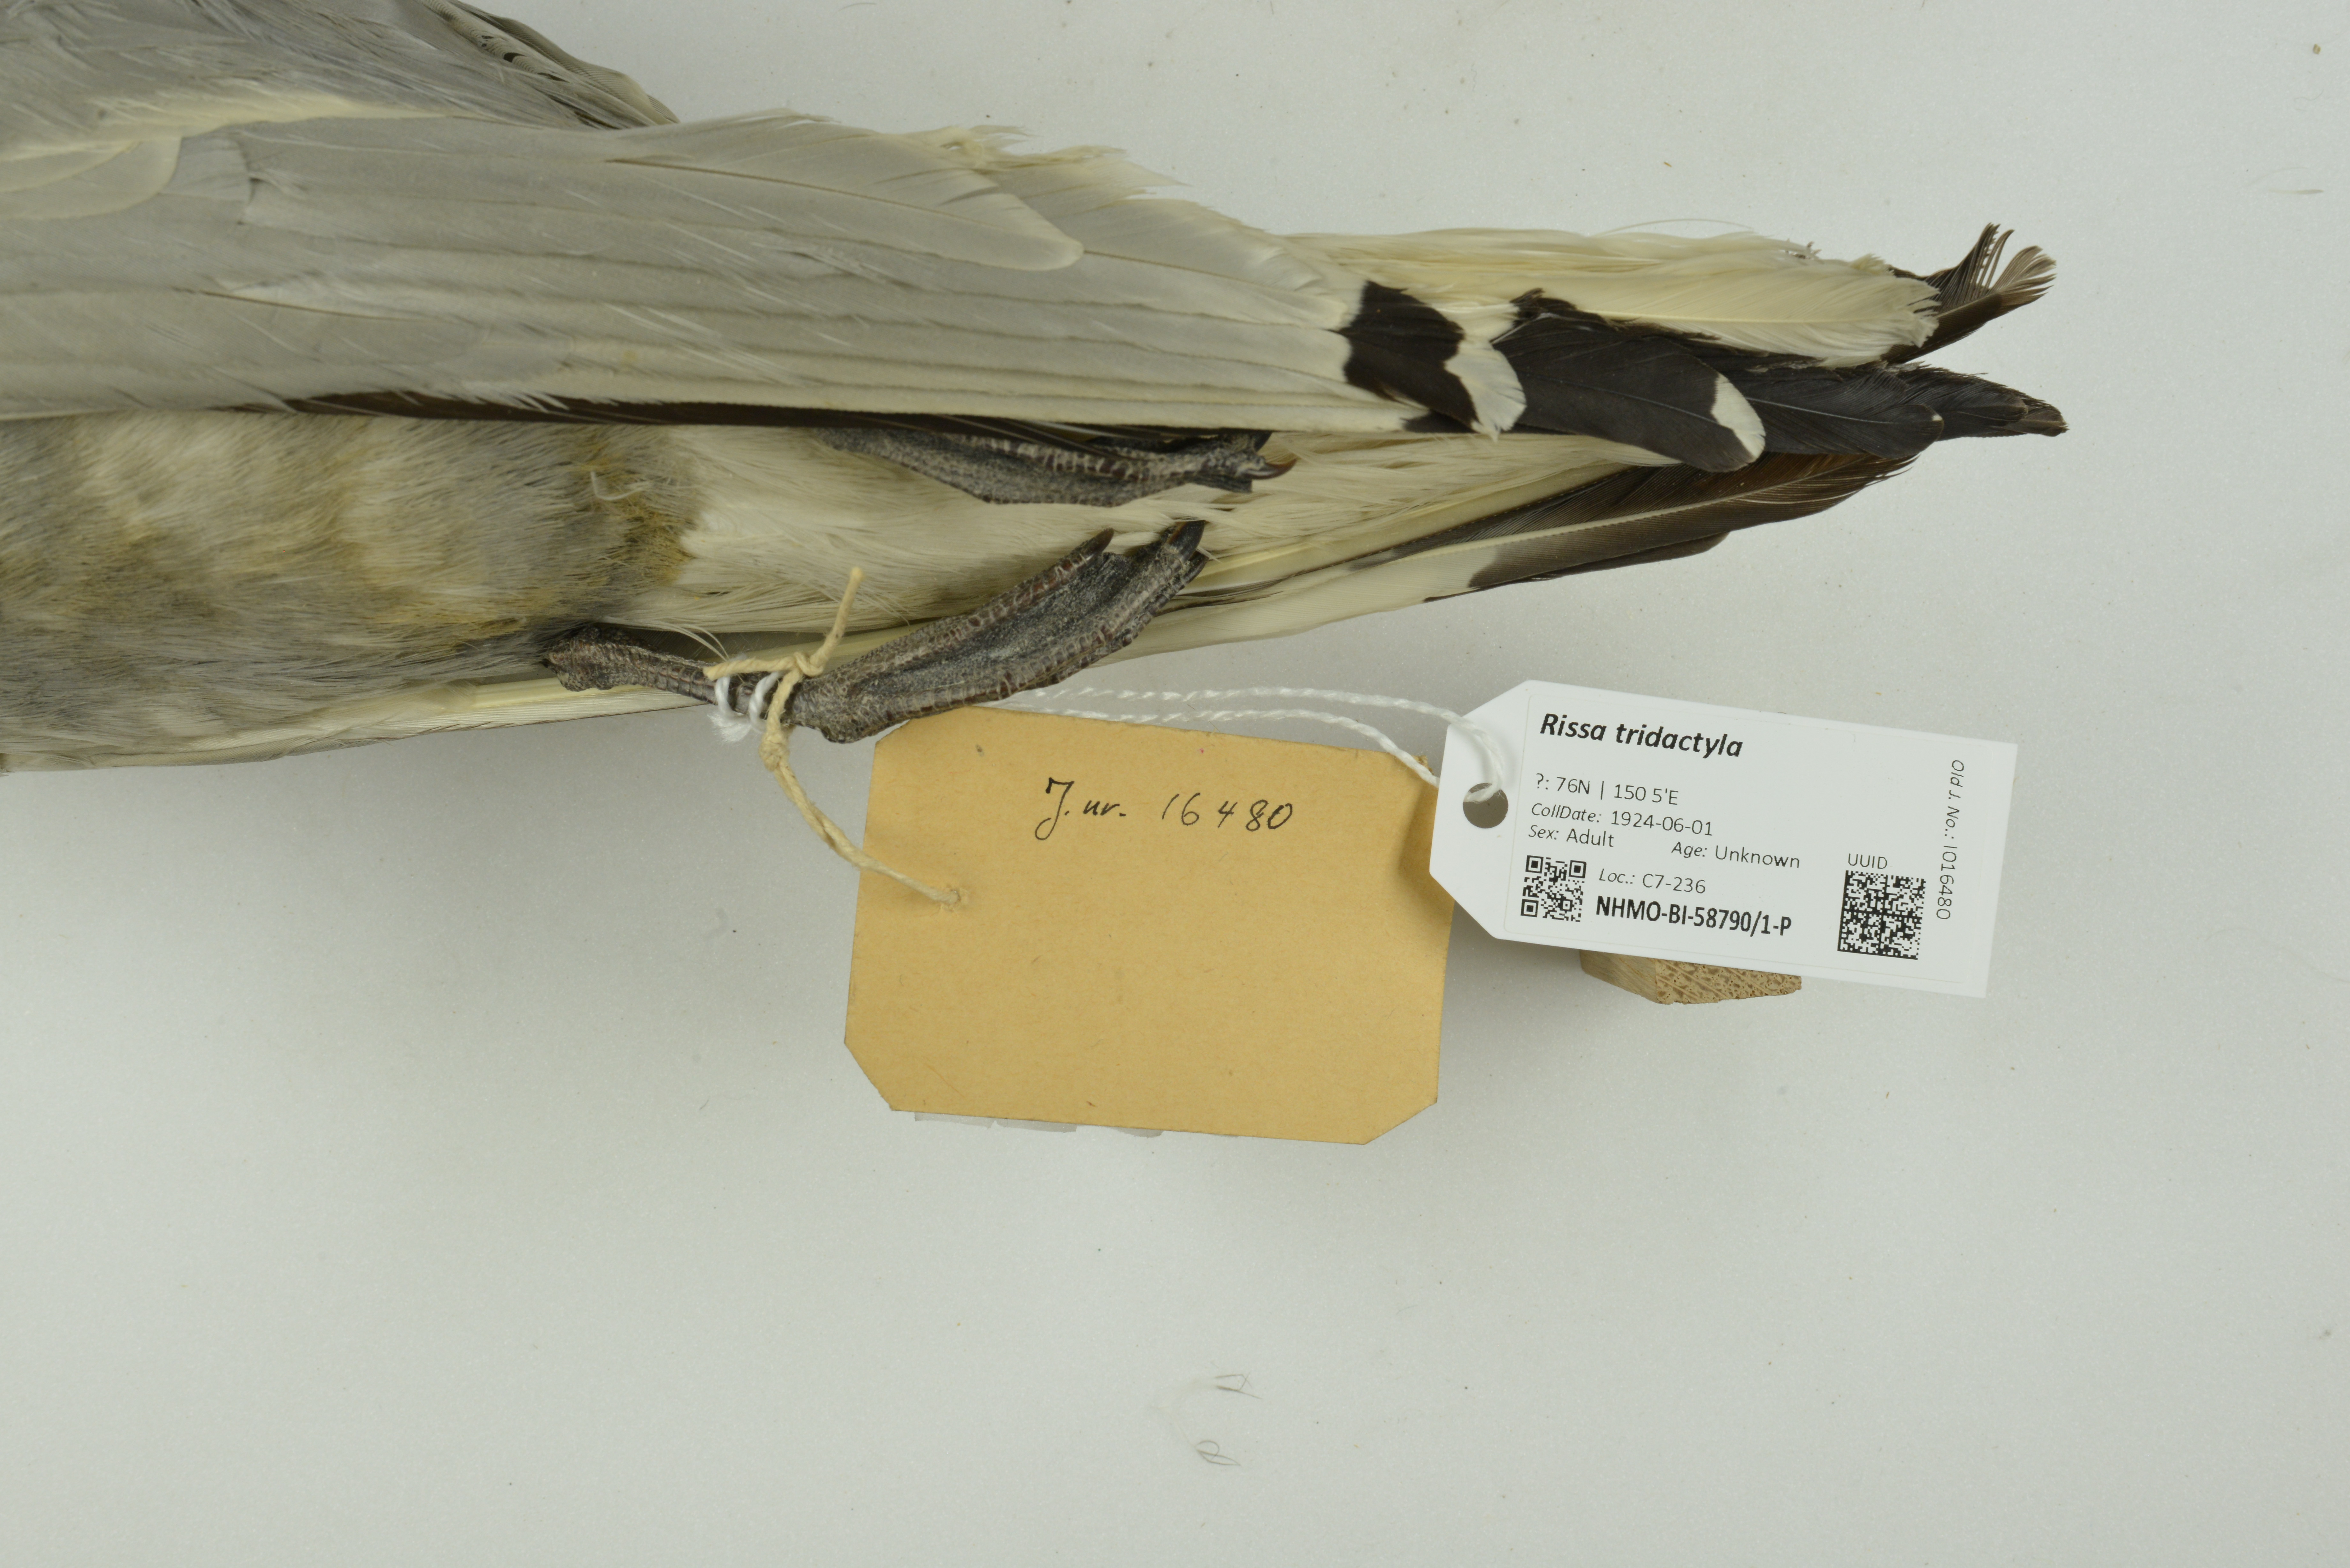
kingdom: Animalia
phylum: Chordata
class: Aves
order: Charadriiformes
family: Laridae
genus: Rissa
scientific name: Rissa tridactyla
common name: Black-legged kittiwake
